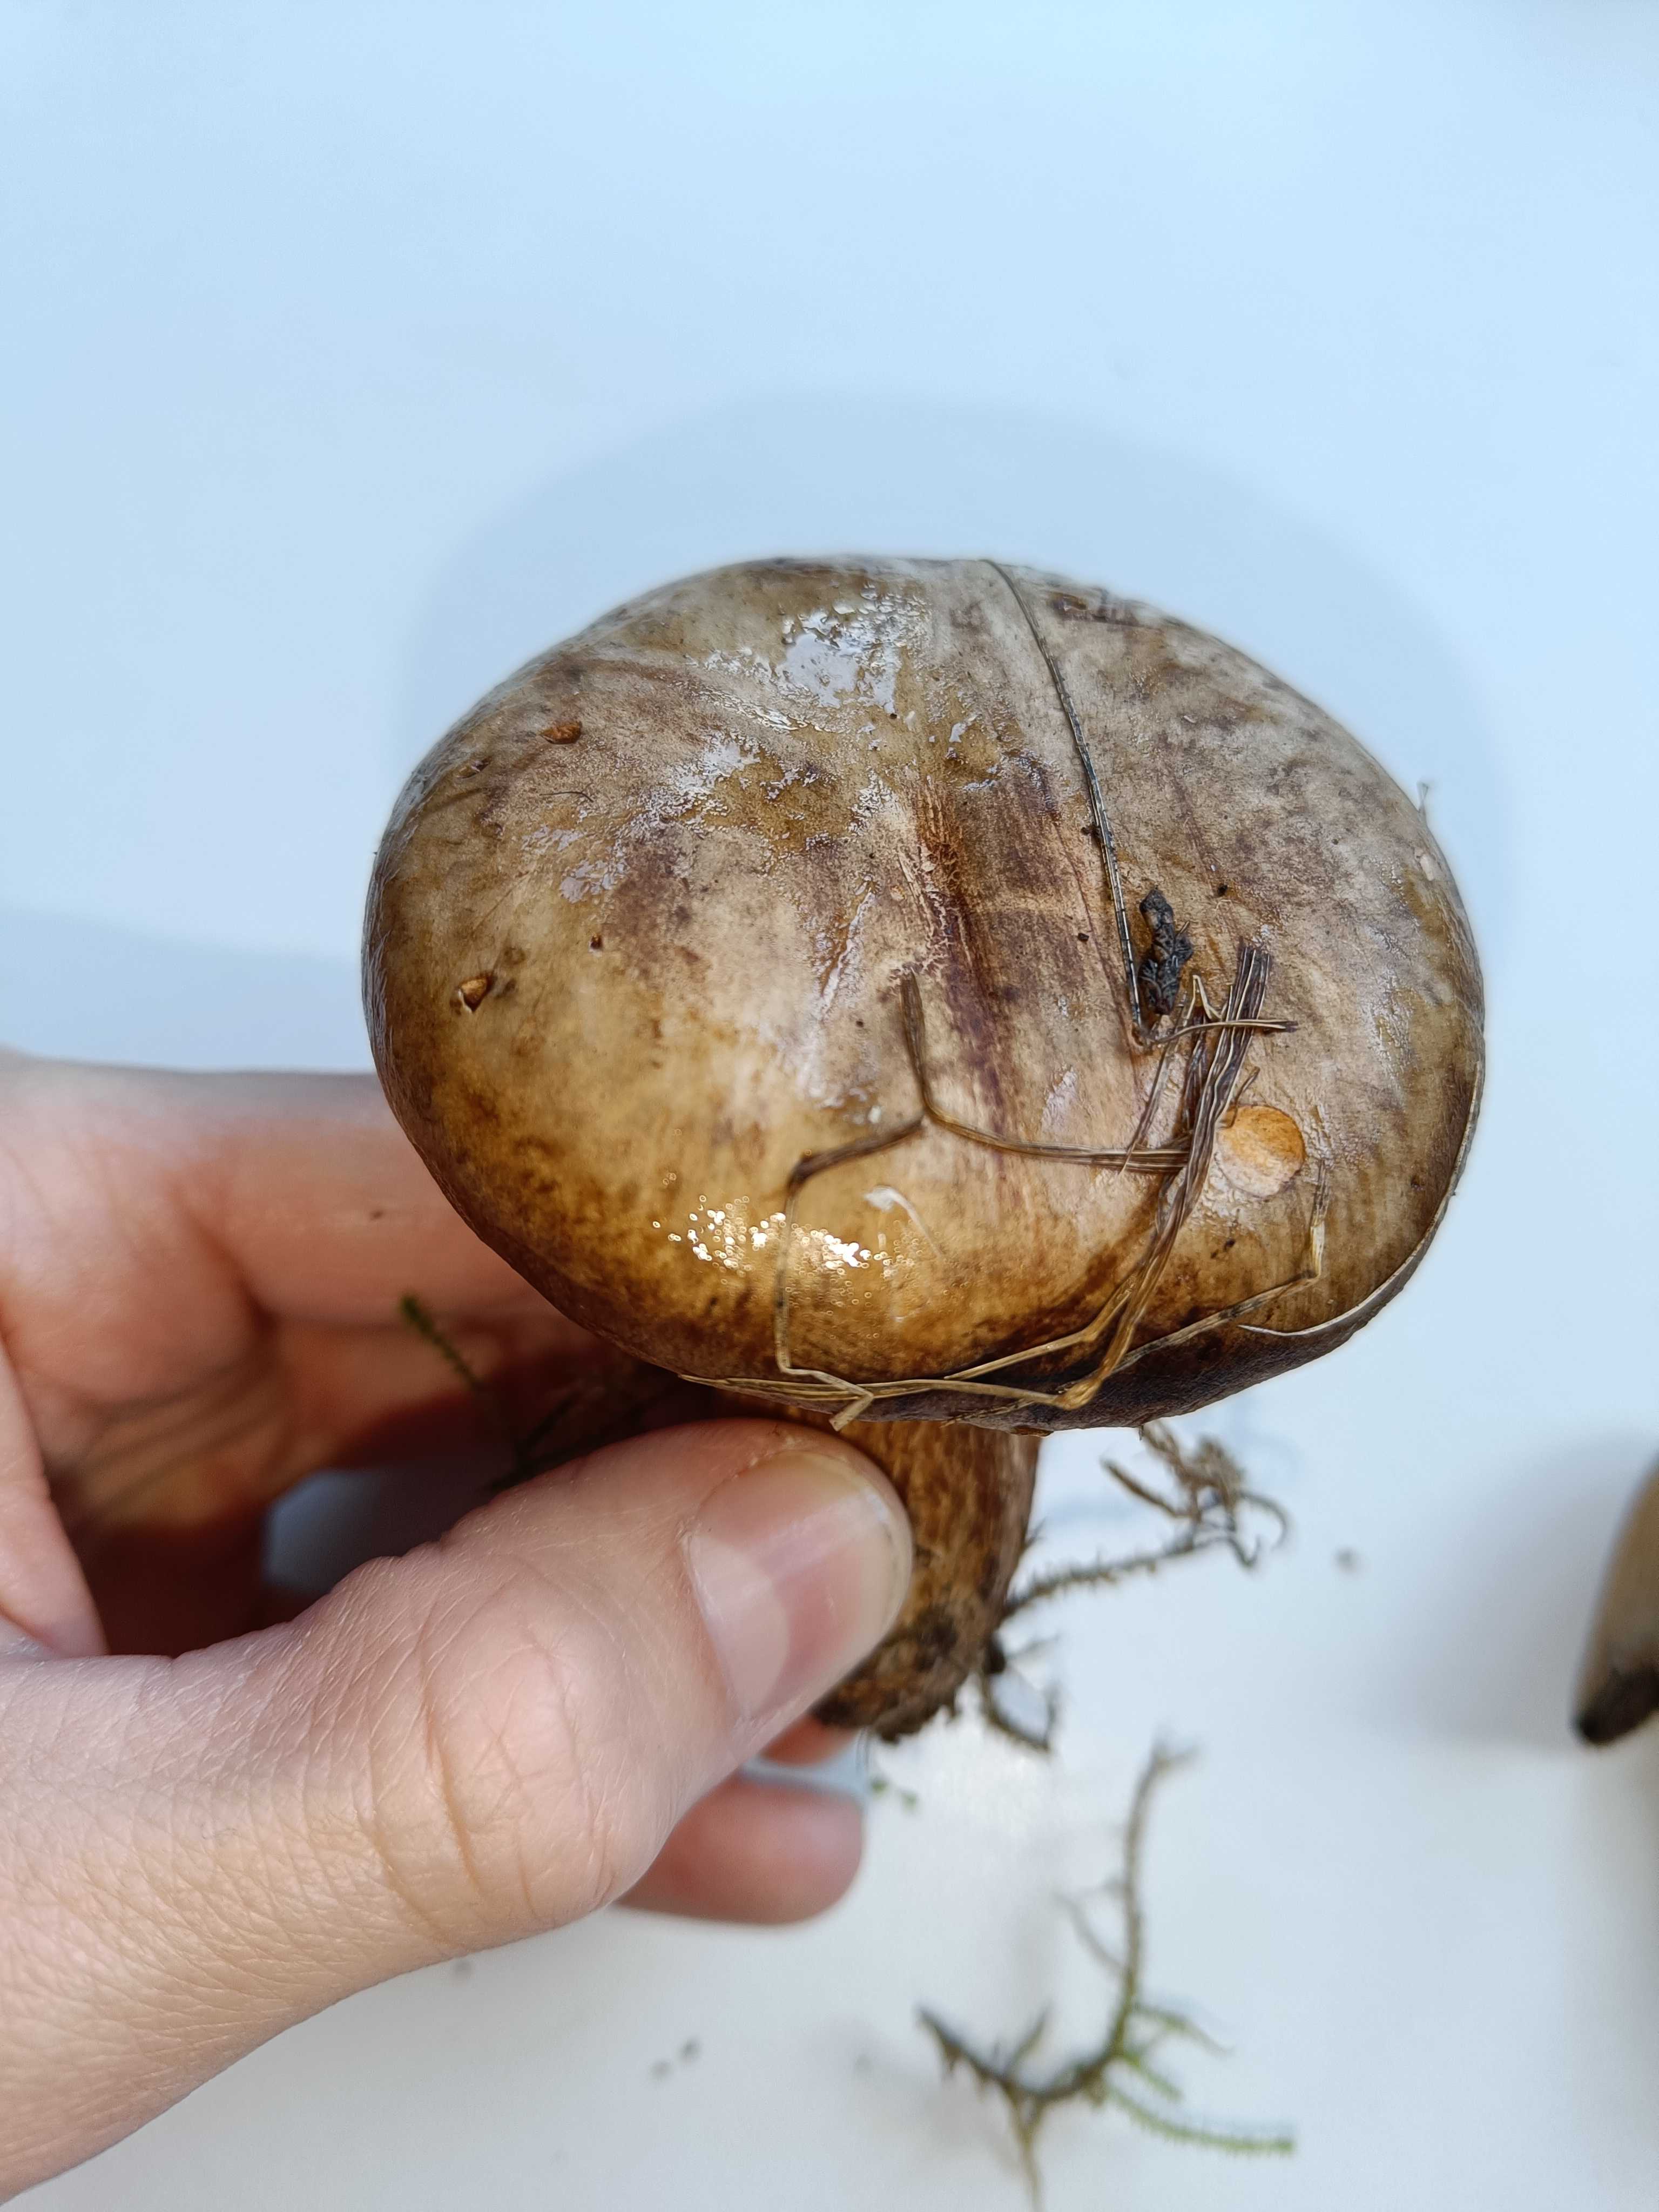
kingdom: Fungi
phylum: Basidiomycota
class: Agaricomycetes
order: Boletales
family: Paxillaceae
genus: Paxillus
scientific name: Paxillus
